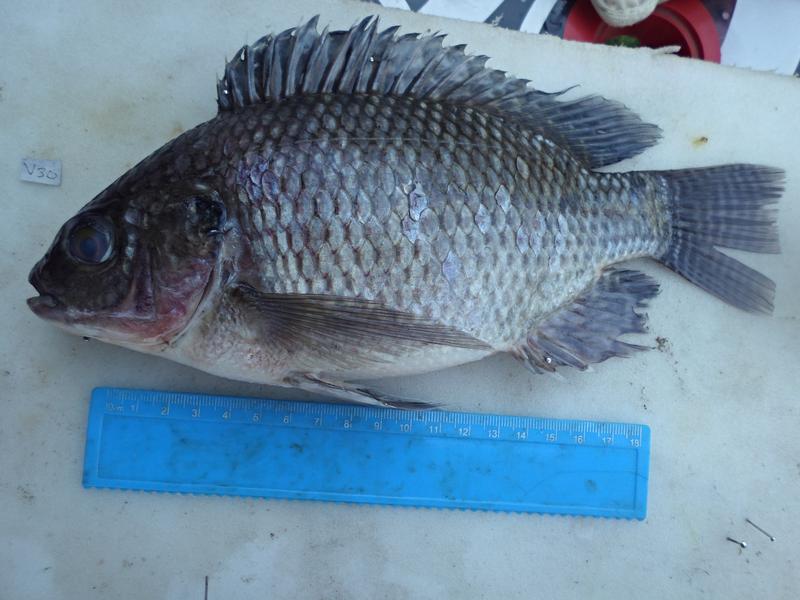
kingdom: Animalia
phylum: Chordata
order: Perciformes
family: Cichlidae
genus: Oreochromis
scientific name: Oreochromis niloticus
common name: Nile tilapia
